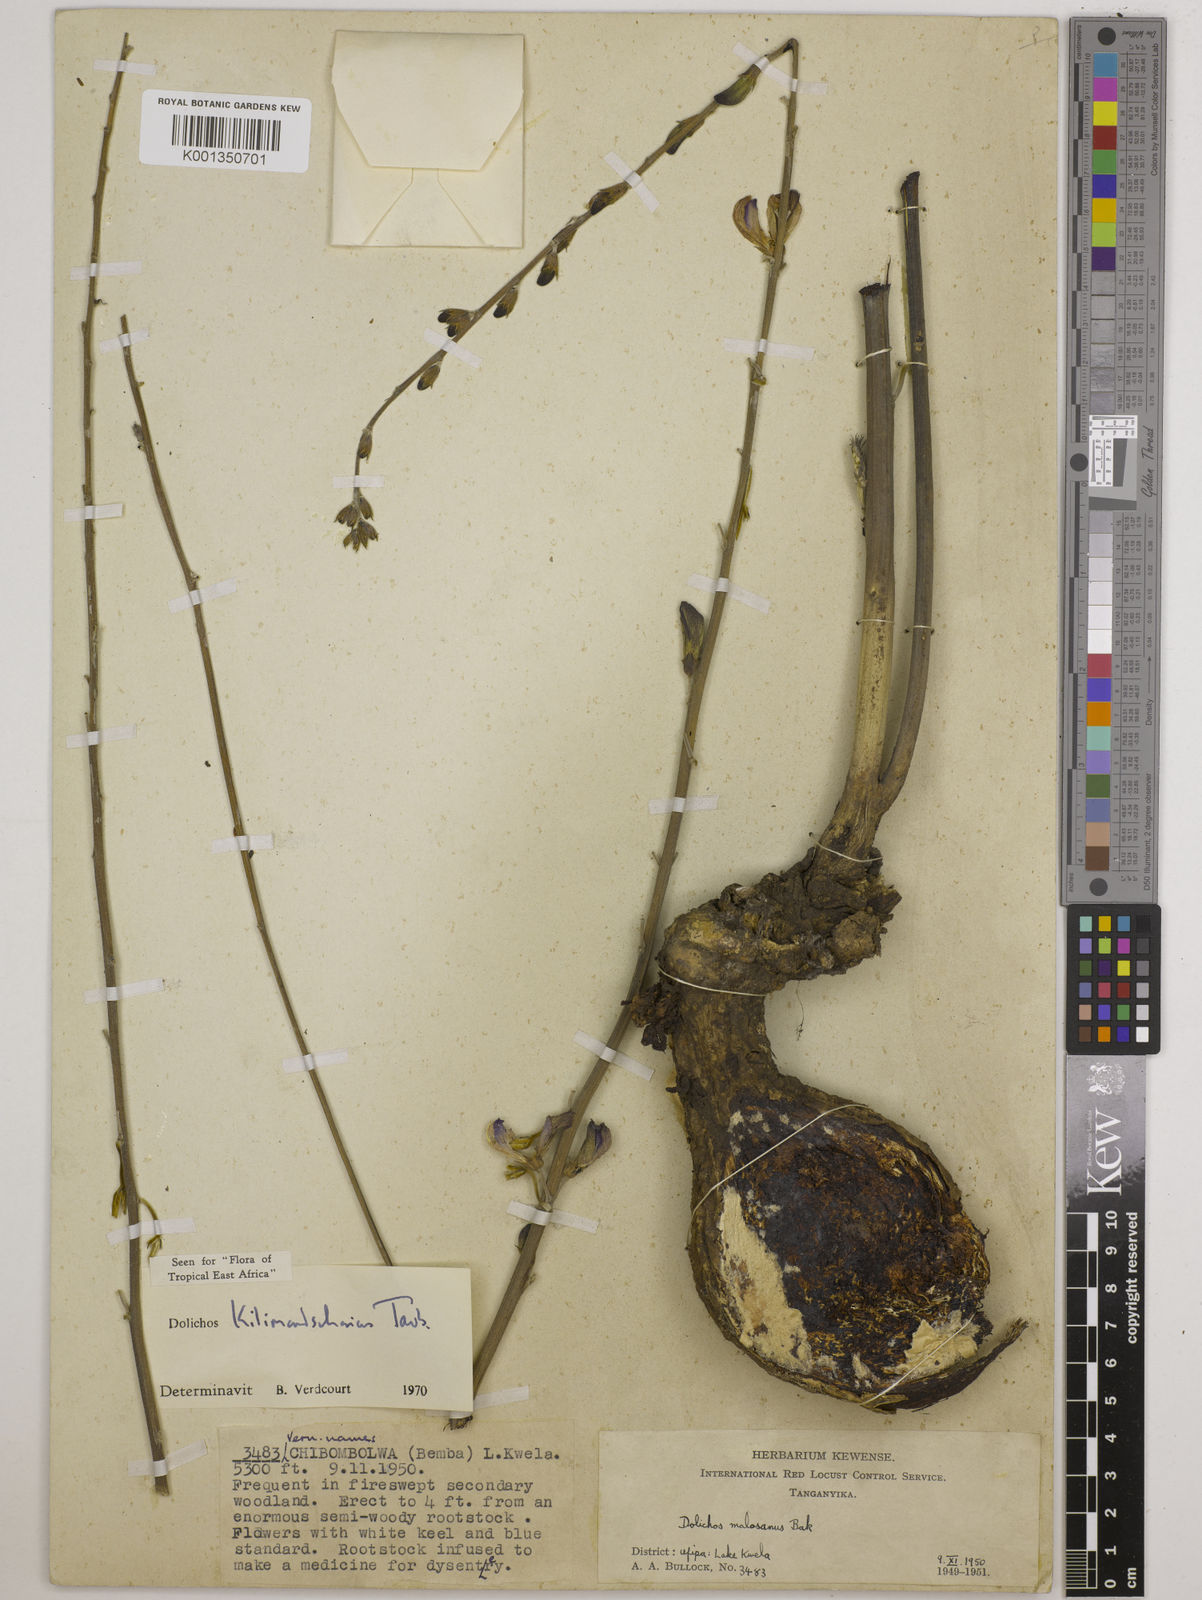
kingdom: Plantae
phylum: Tracheophyta
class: Magnoliopsida
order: Fabales
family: Fabaceae
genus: Dolichos
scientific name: Dolichos kilimandscharicus
